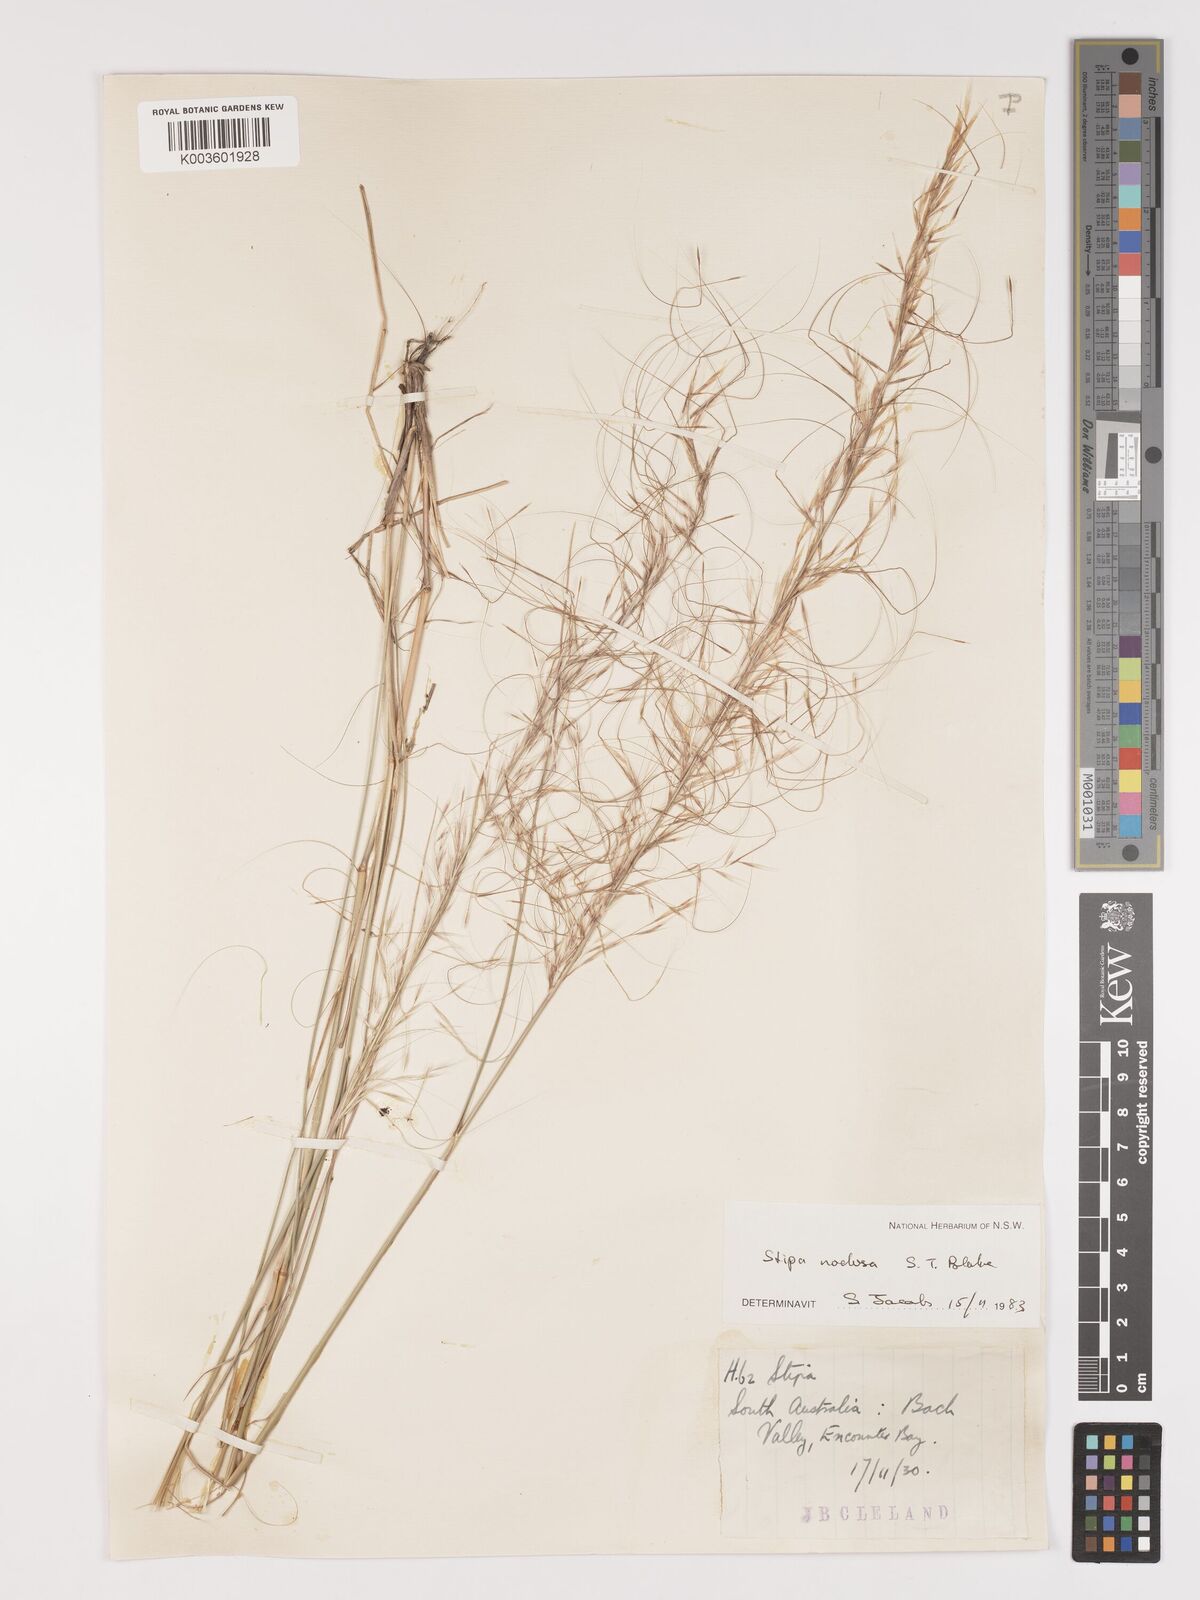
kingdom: Plantae
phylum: Tracheophyta
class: Liliopsida
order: Poales
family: Poaceae
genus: Austrostipa
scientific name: Austrostipa nodosa
